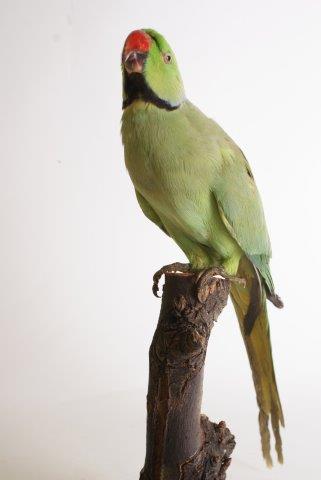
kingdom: Animalia
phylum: Chordata
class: Aves
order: Psittaciformes
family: Psittacidae
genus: Psittacula
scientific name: Psittacula krameri
